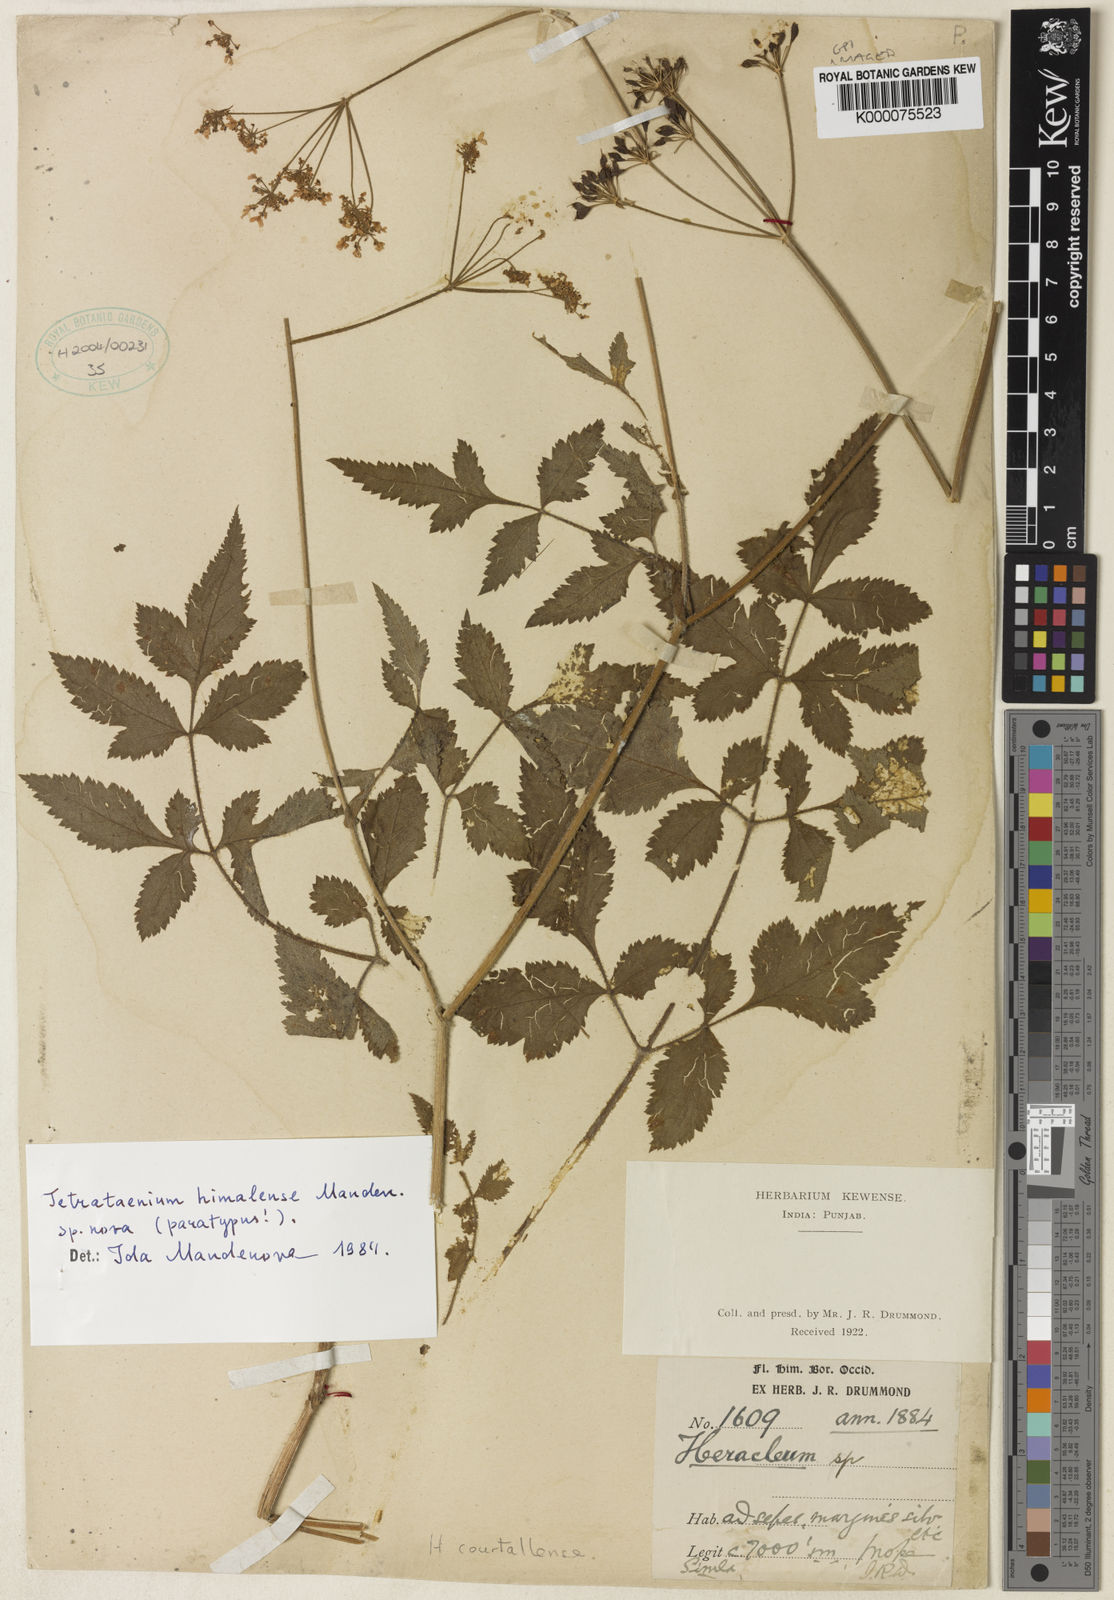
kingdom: Plantae
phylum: Tracheophyta
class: Magnoliopsida
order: Apiales
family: Apiaceae
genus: Tordyliopsis
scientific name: Tordyliopsis brunonis
